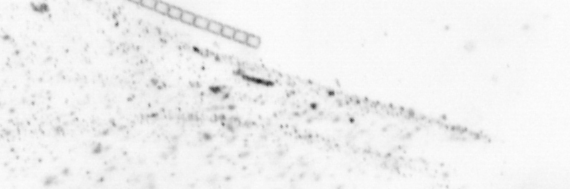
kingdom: Chromista
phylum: Ochrophyta
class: Bacillariophyceae
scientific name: Bacillariophyceae
